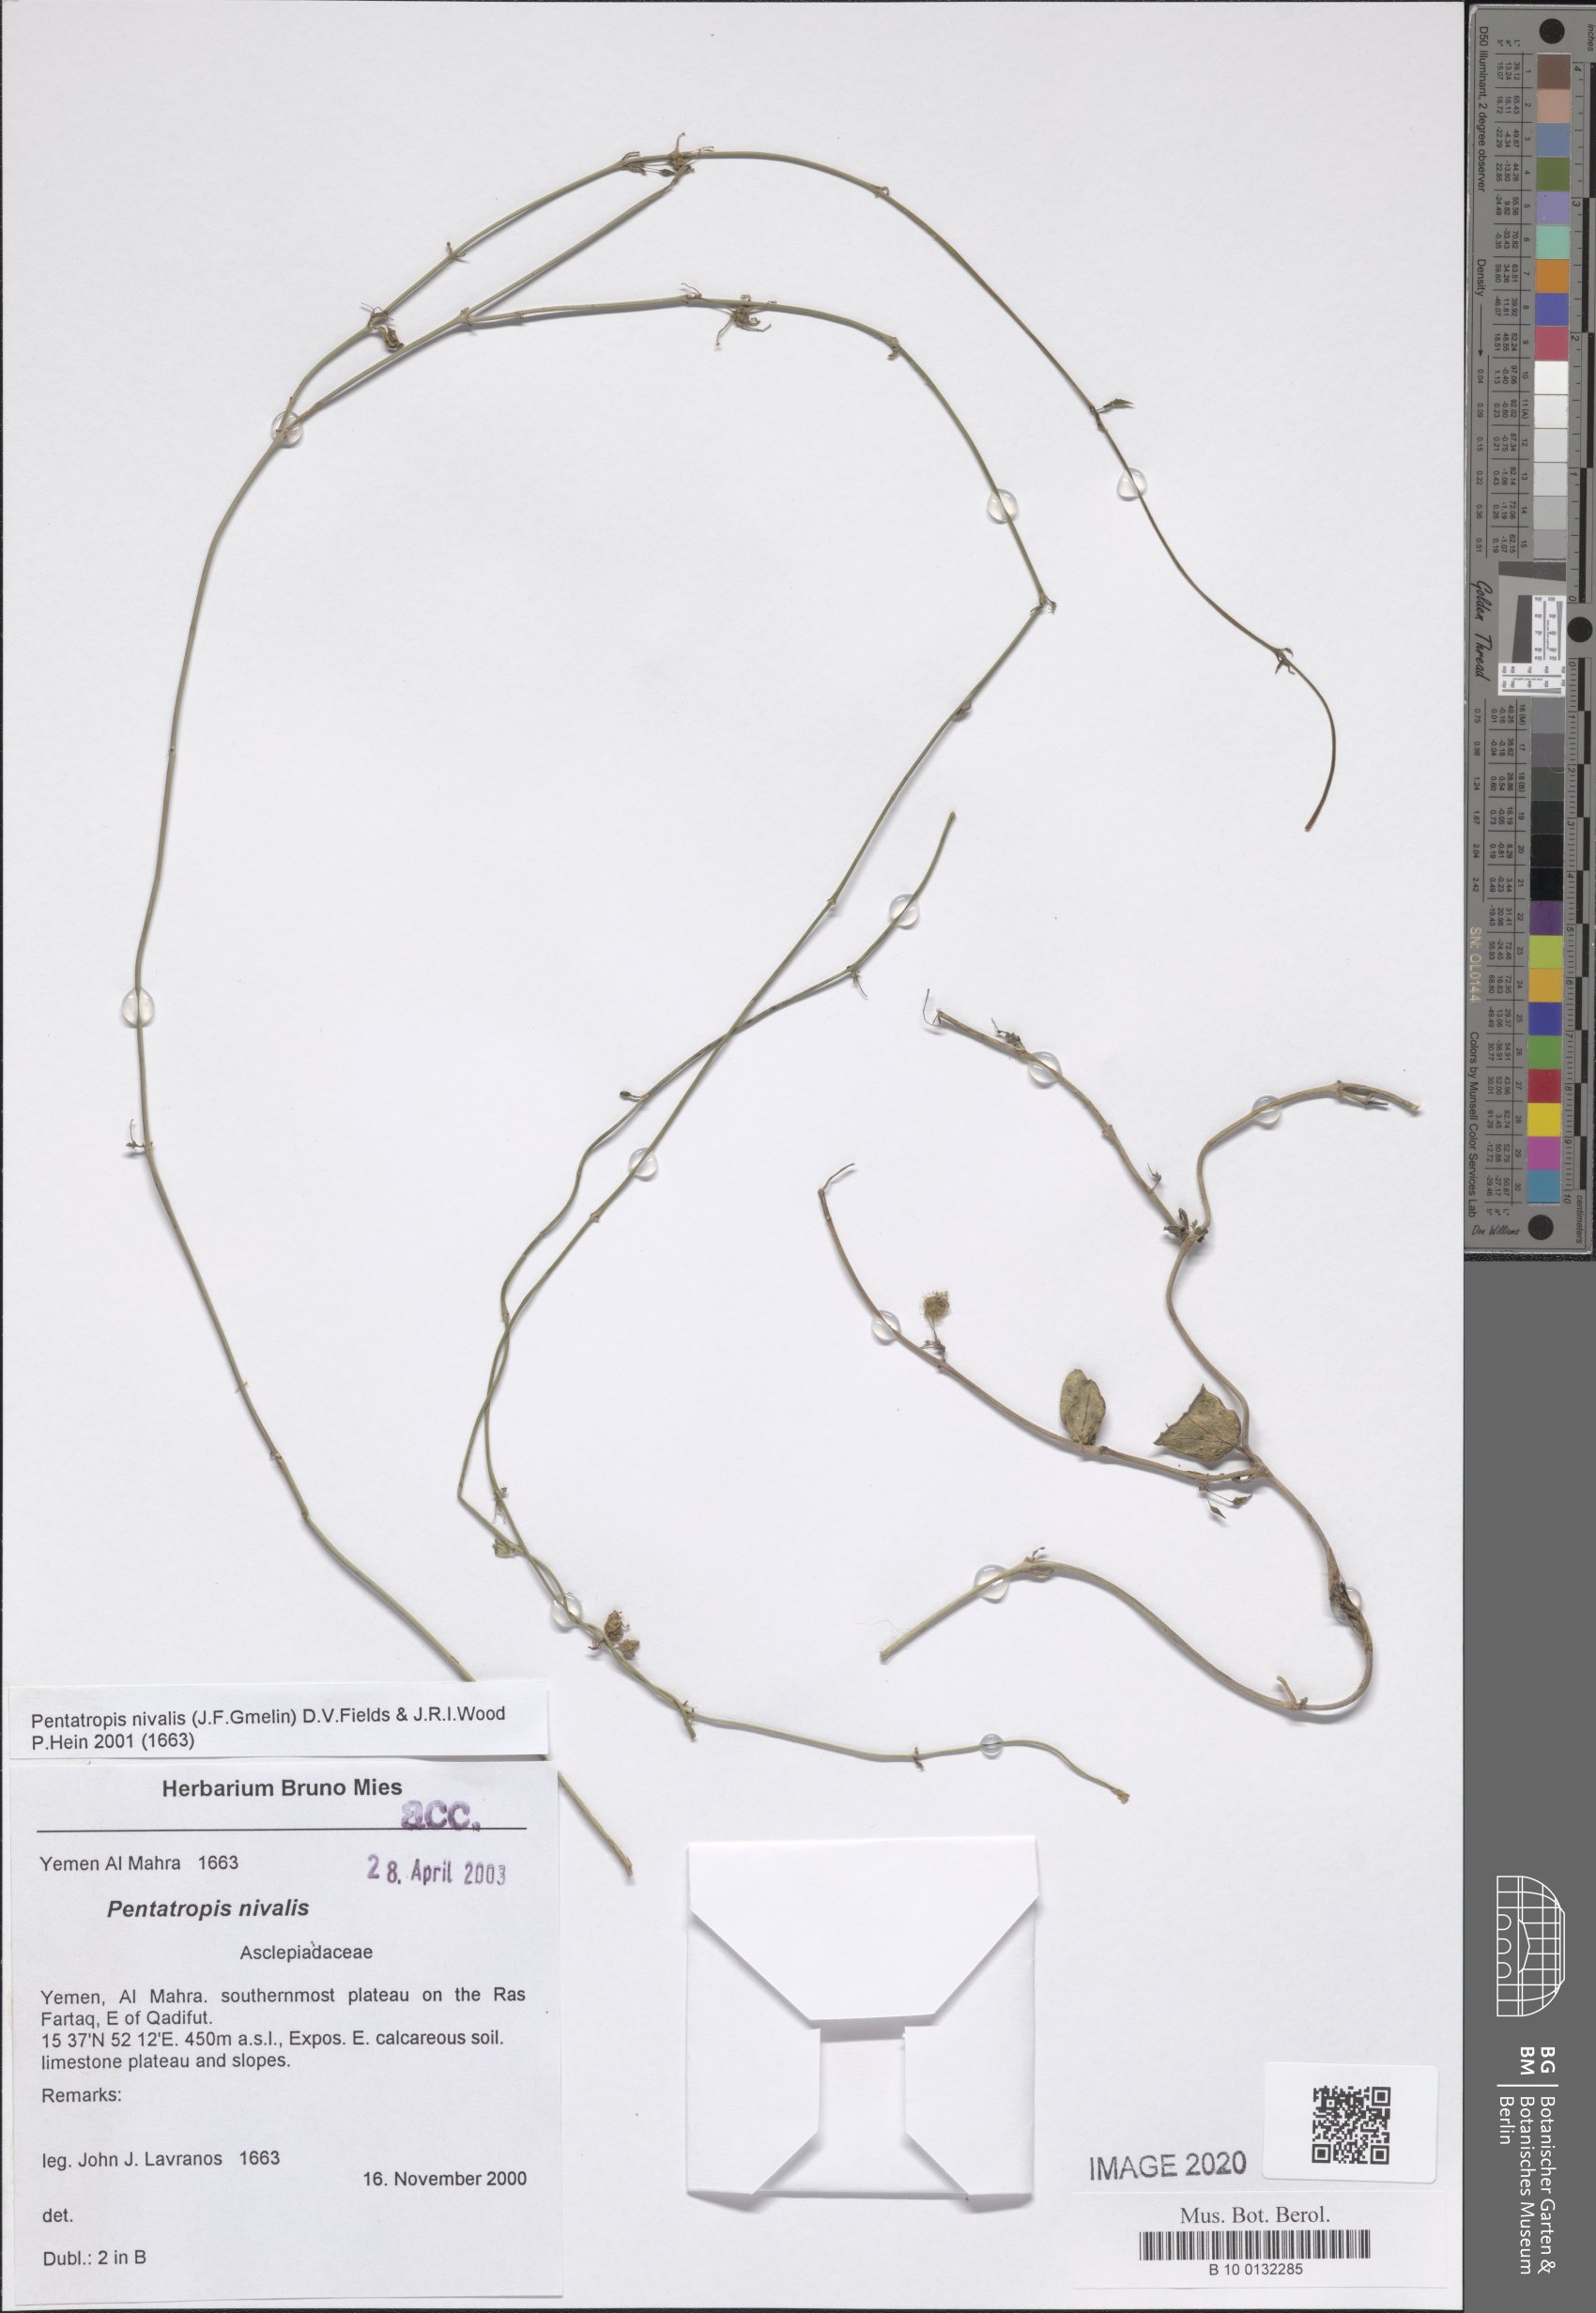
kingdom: Plantae
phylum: Tracheophyta
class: Magnoliopsida
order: Gentianales
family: Apocynaceae
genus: Pentatropis
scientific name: Pentatropis nivalis
